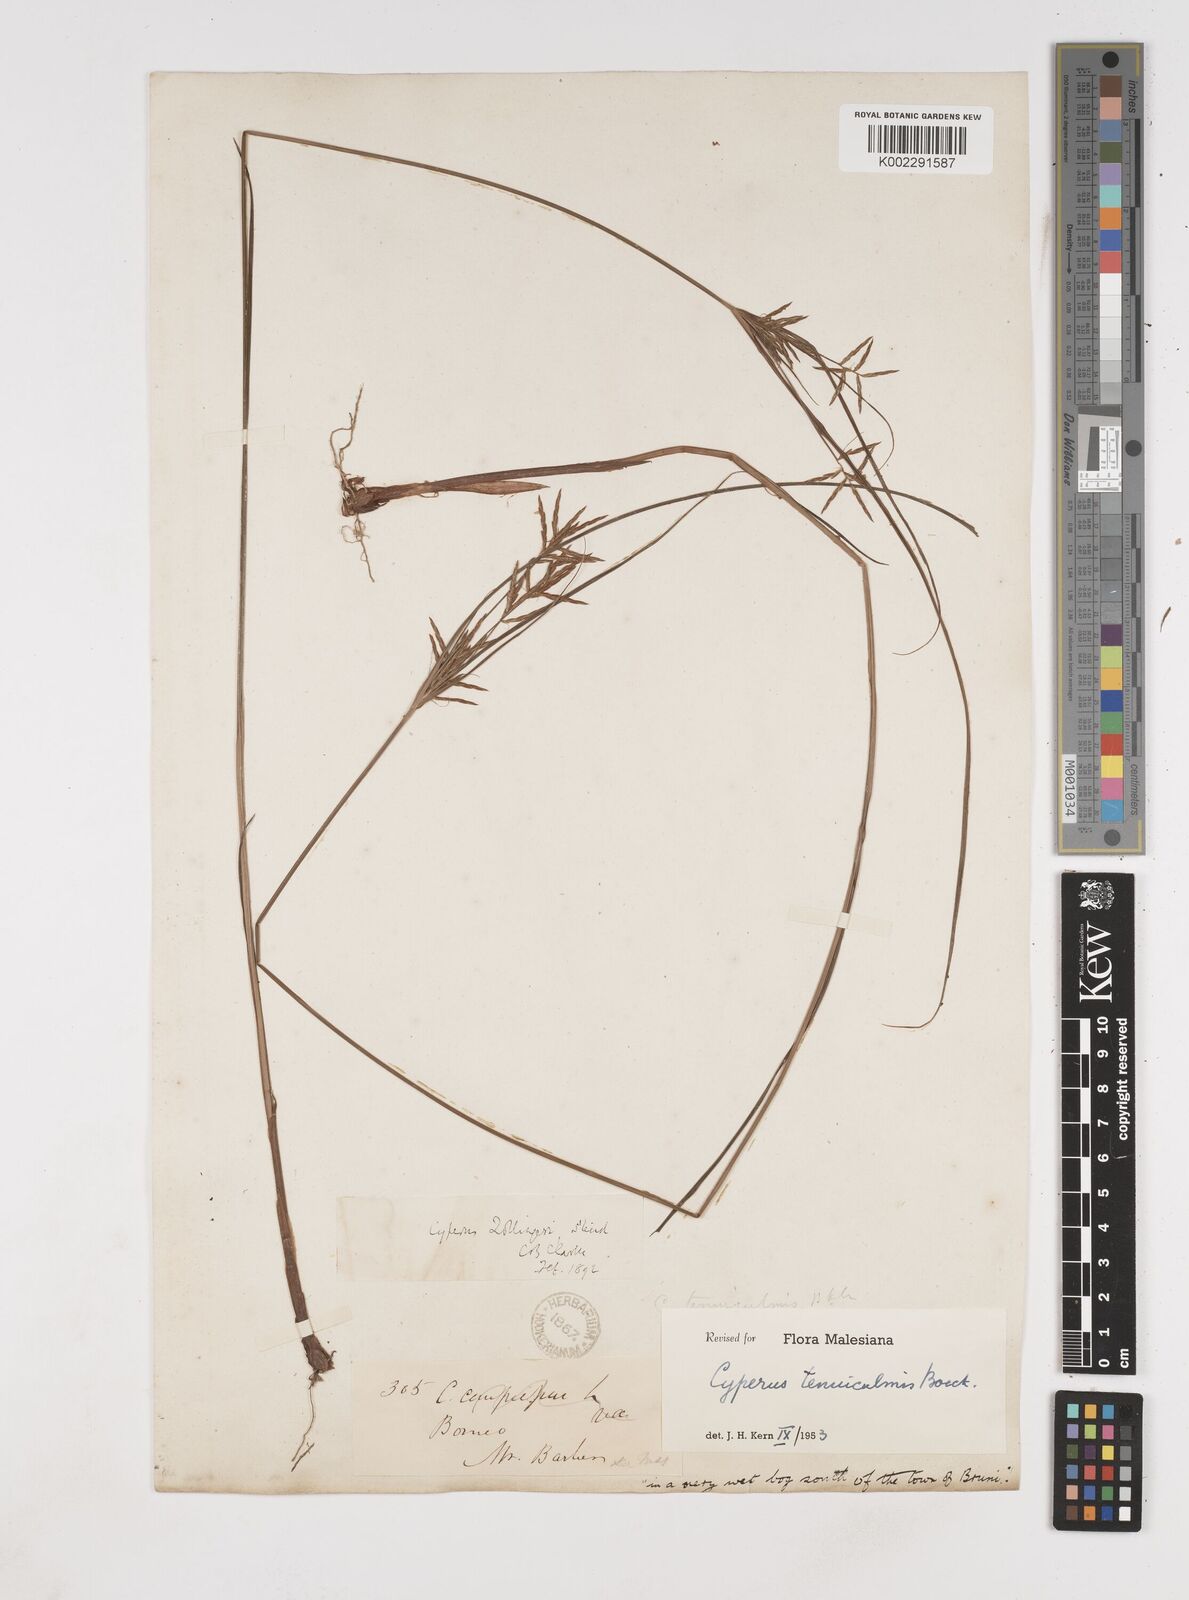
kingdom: Plantae
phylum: Tracheophyta
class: Liliopsida
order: Poales
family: Cyperaceae
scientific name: Cyperaceae
